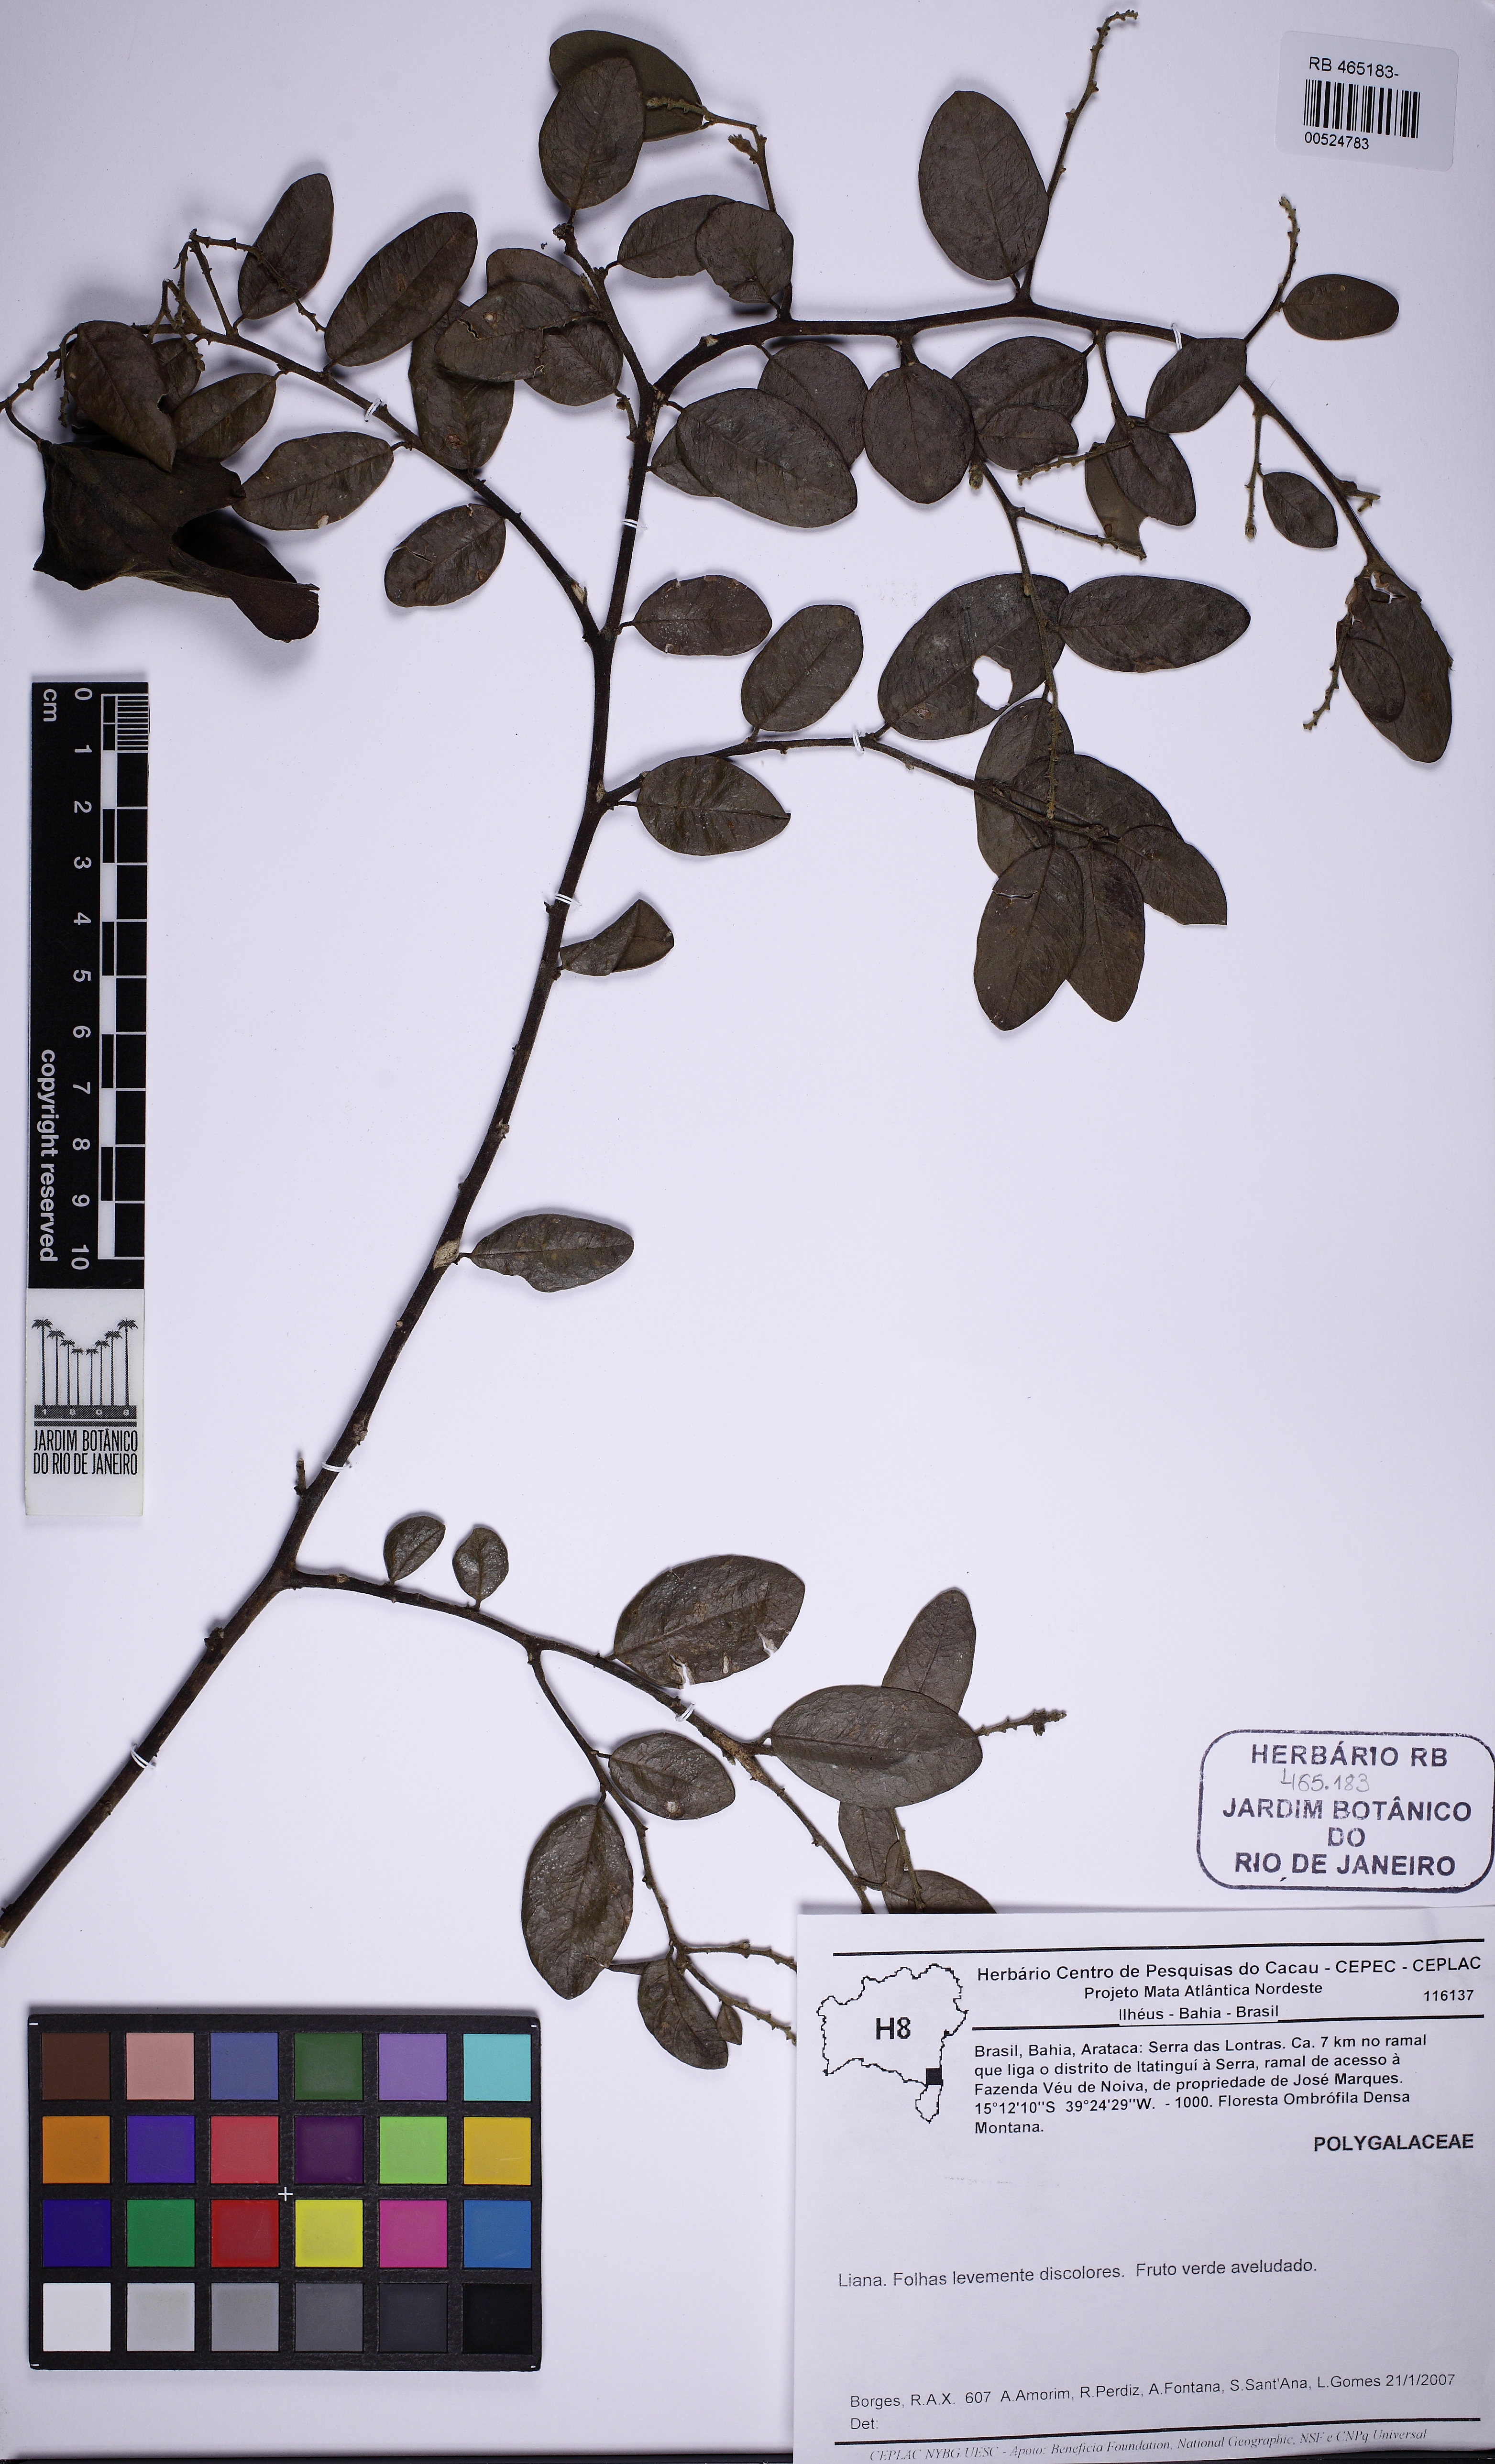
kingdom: Plantae
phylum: Tracheophyta
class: Magnoliopsida
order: Fabales
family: Polygalaceae
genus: Securidaca
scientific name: Securidaca
